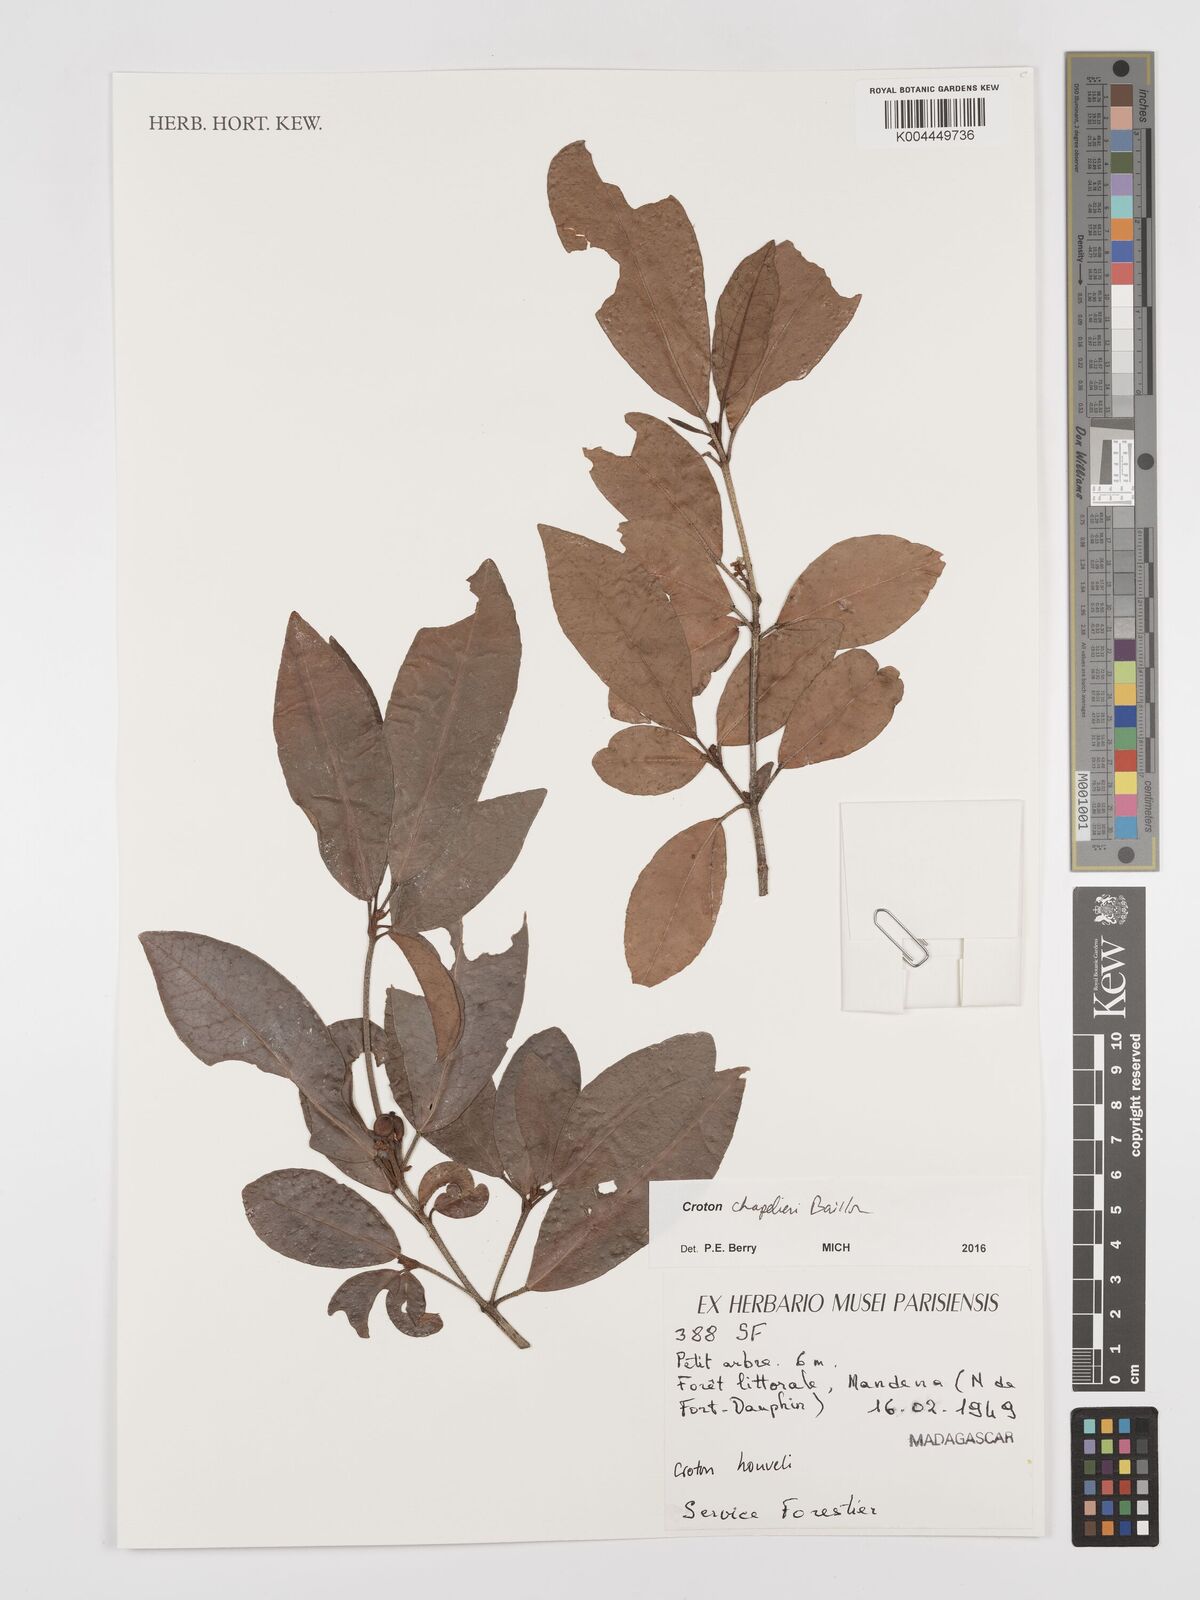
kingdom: Plantae
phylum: Tracheophyta
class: Magnoliopsida
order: Malpighiales
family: Euphorbiaceae
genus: Croton
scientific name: Croton chapelieri
